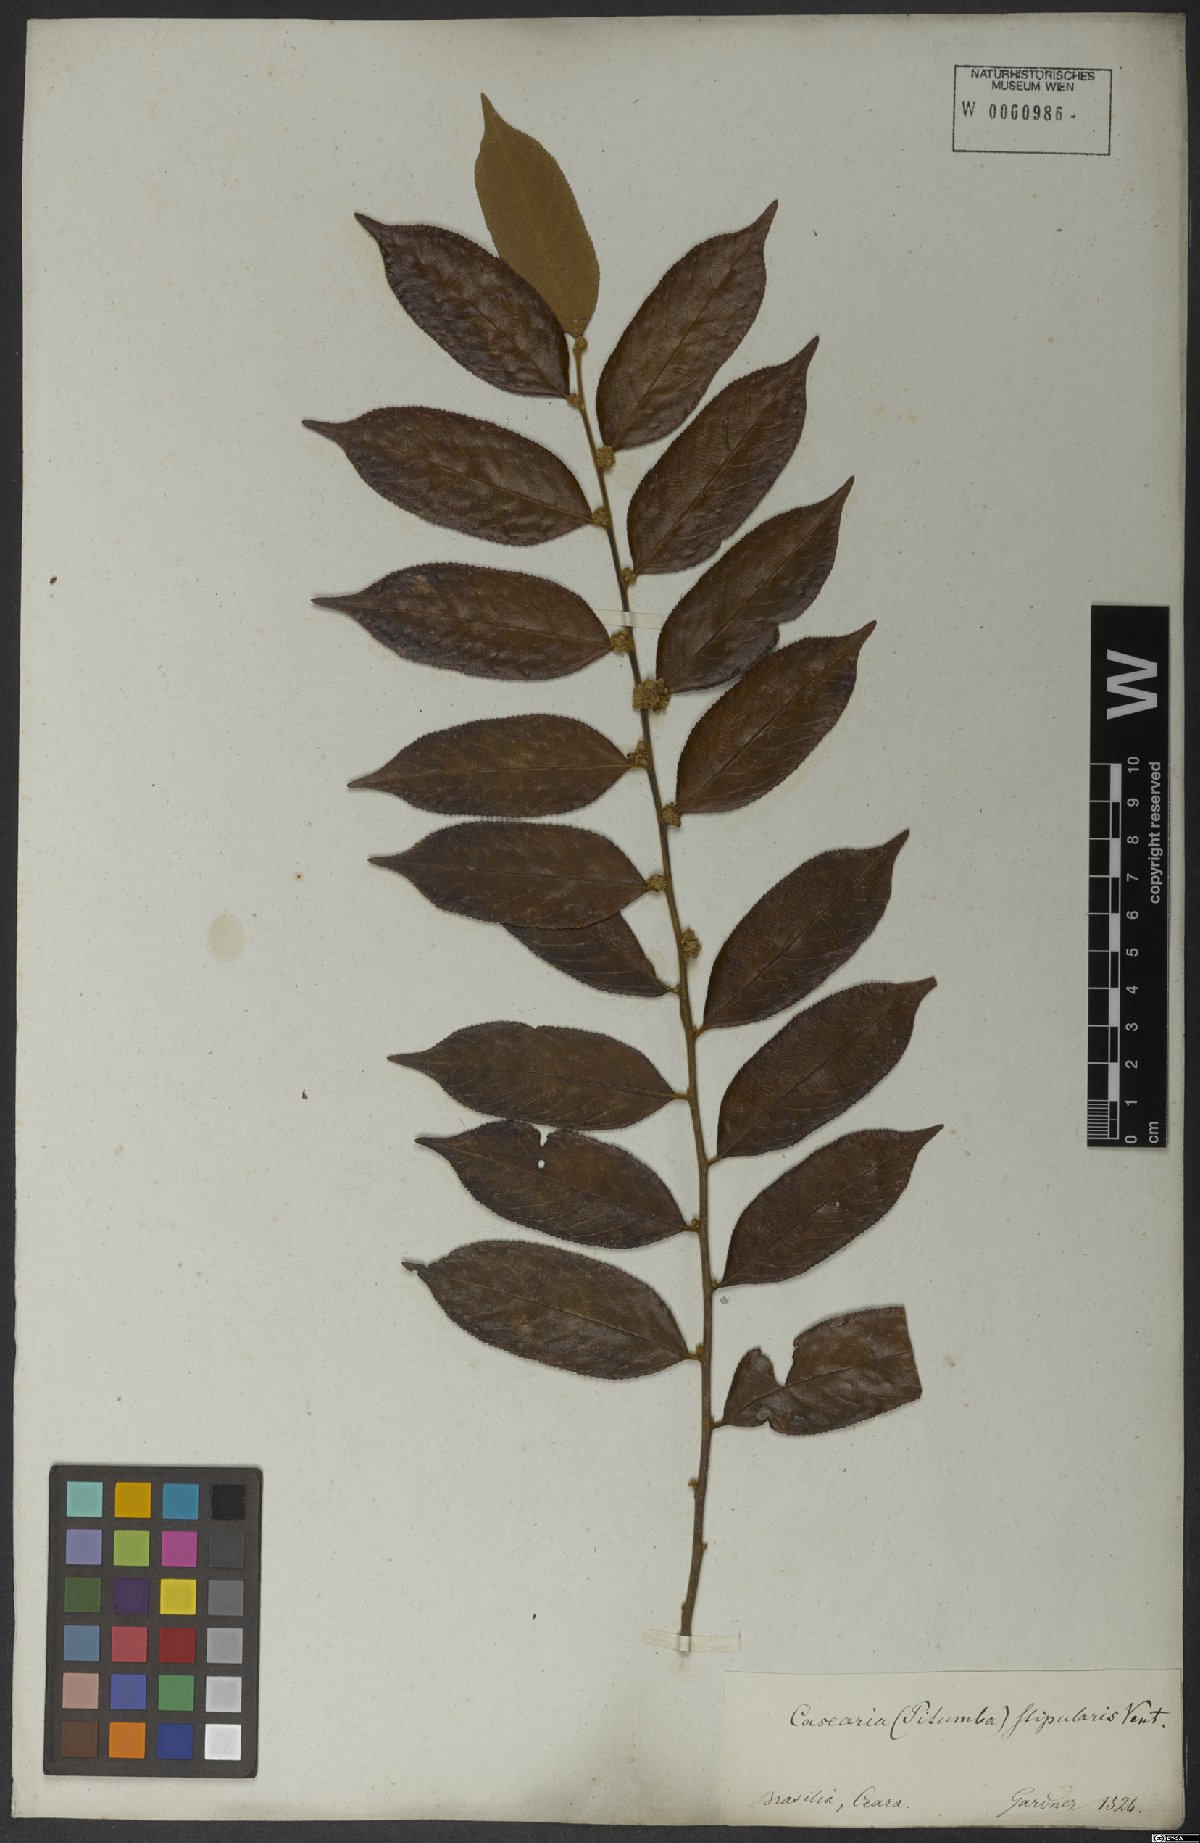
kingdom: Plantae
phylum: Tracheophyta
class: Magnoliopsida
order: Malpighiales
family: Salicaceae
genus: Casearia
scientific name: Casearia grandiflora
